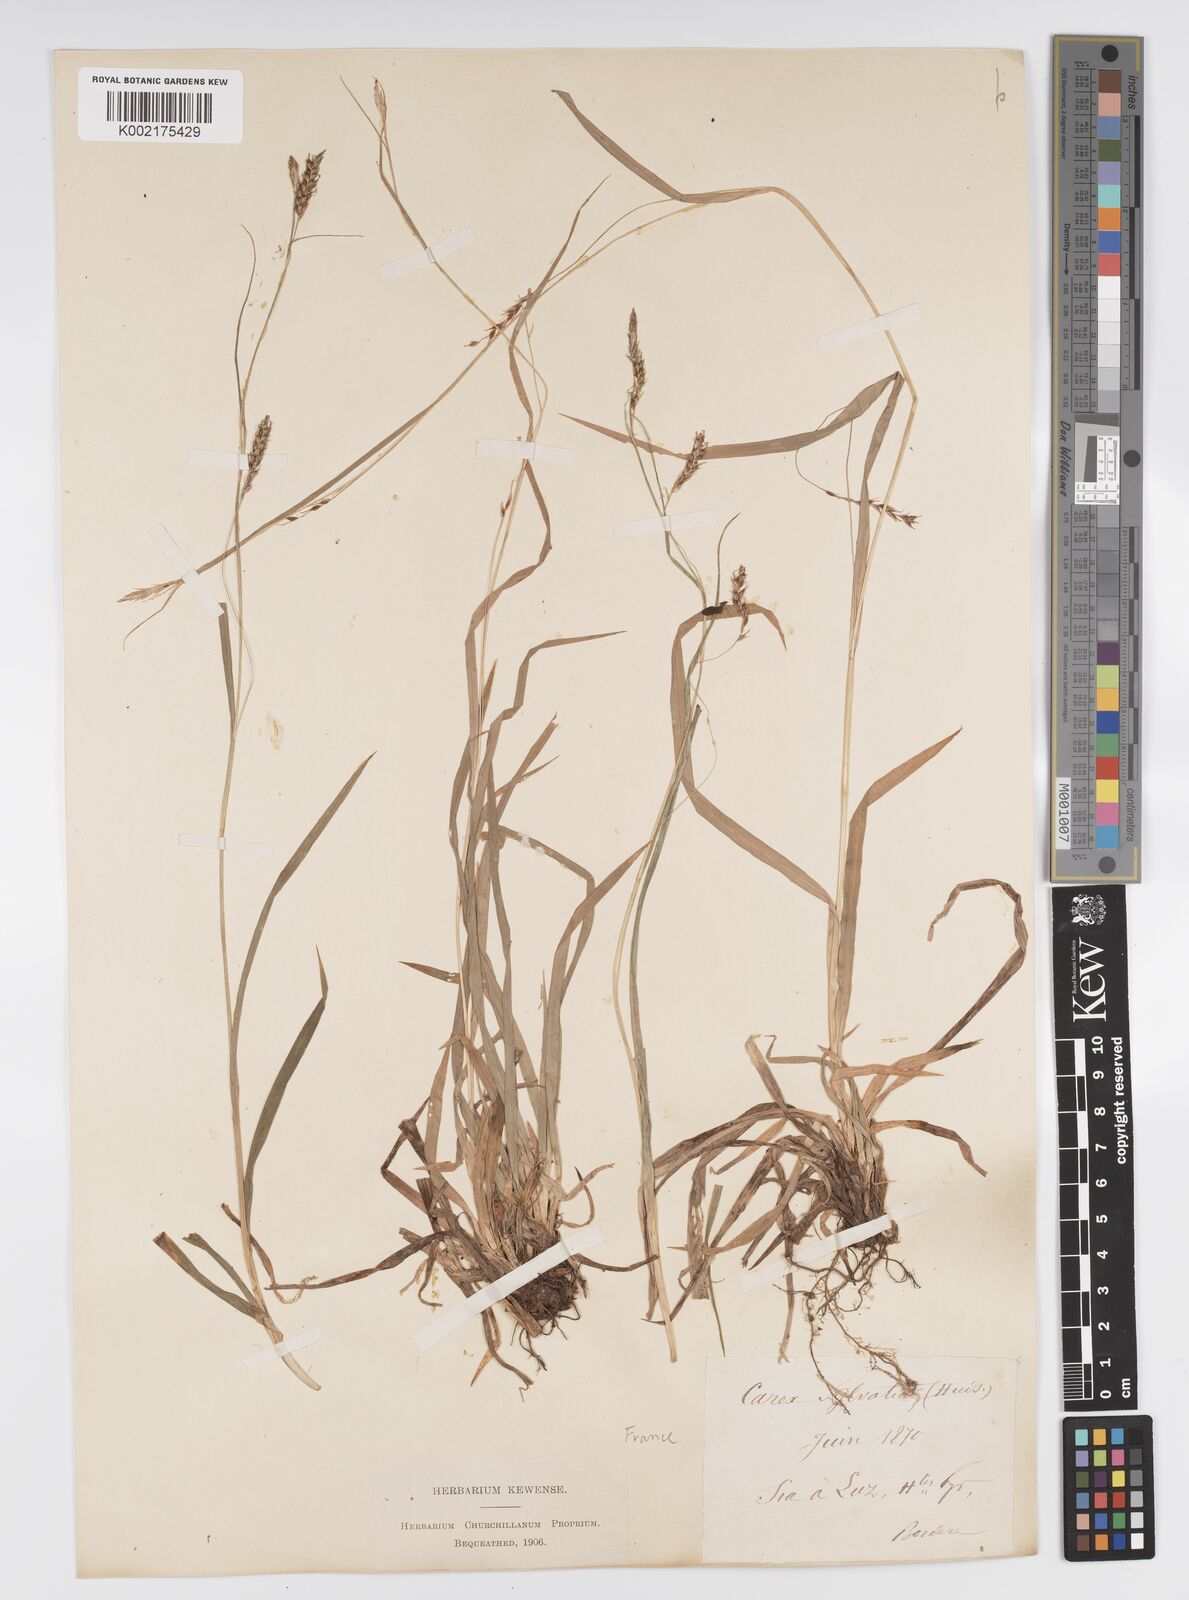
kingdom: Plantae
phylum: Tracheophyta
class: Liliopsida
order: Poales
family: Cyperaceae
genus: Carex
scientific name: Carex sylvatica
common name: Wood-sedge
